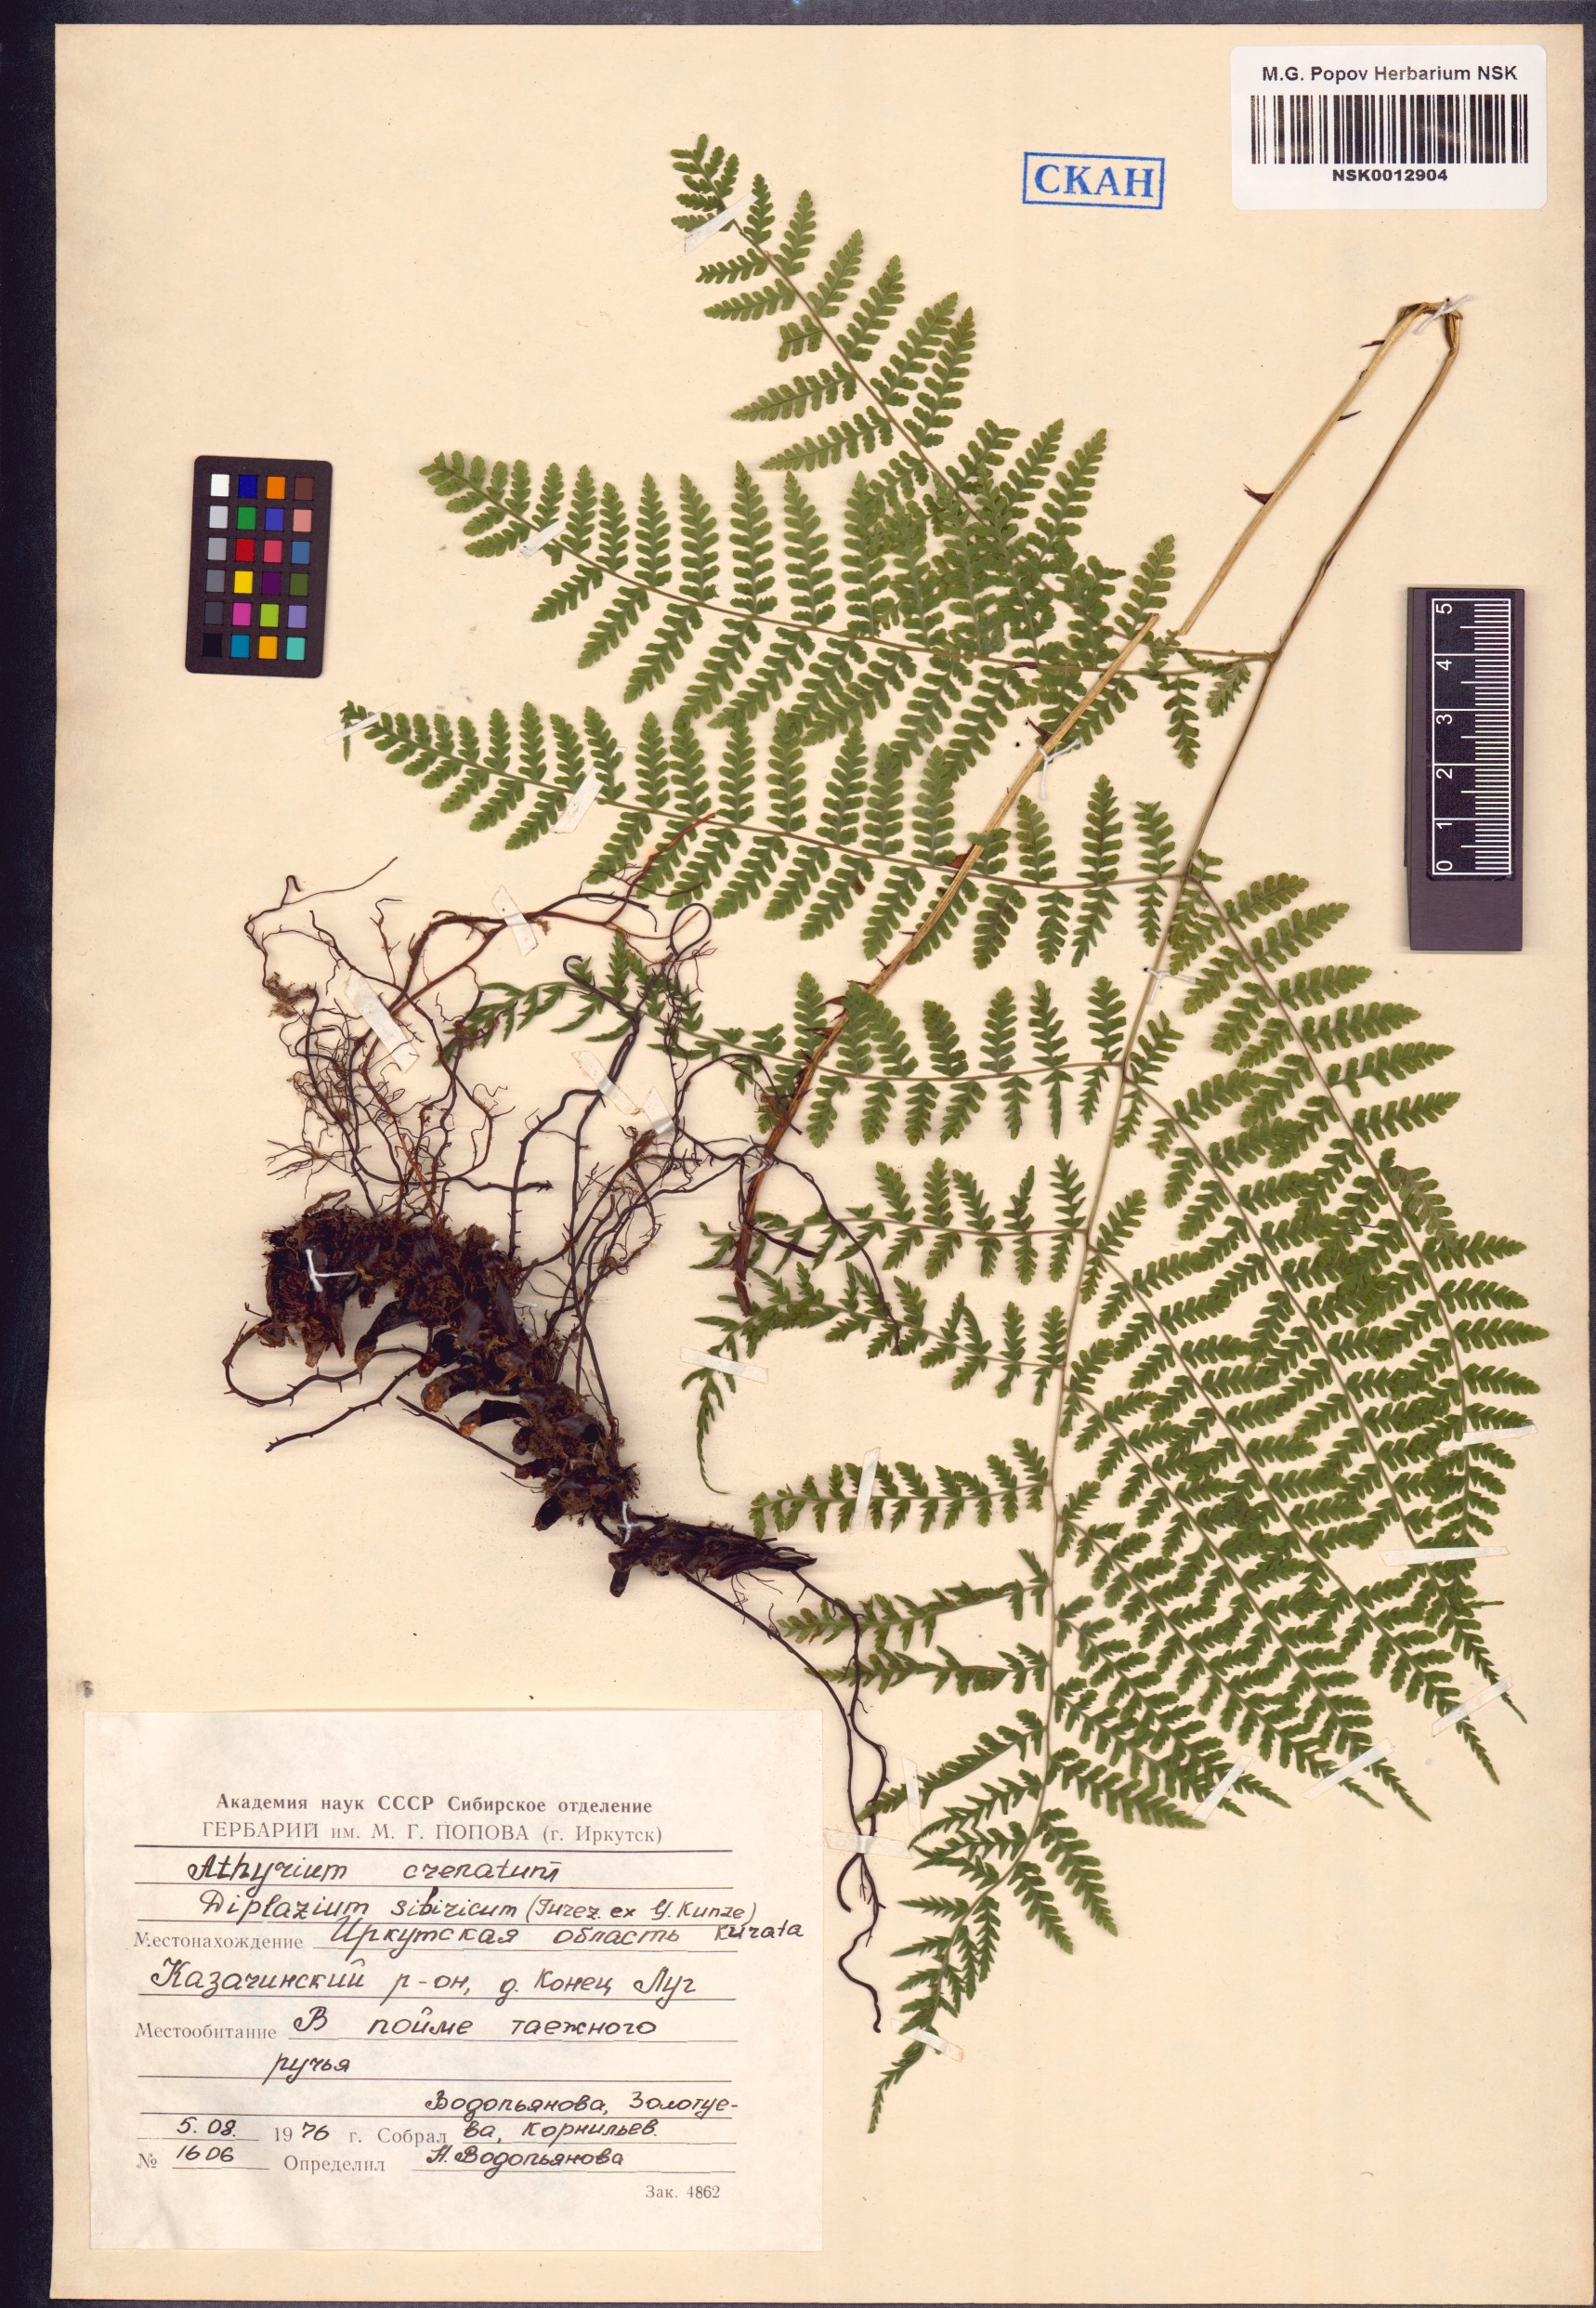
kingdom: Plantae
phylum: Tracheophyta
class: Polypodiopsida
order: Polypodiales
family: Athyriaceae
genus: Diplazium
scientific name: Diplazium sibiricum
